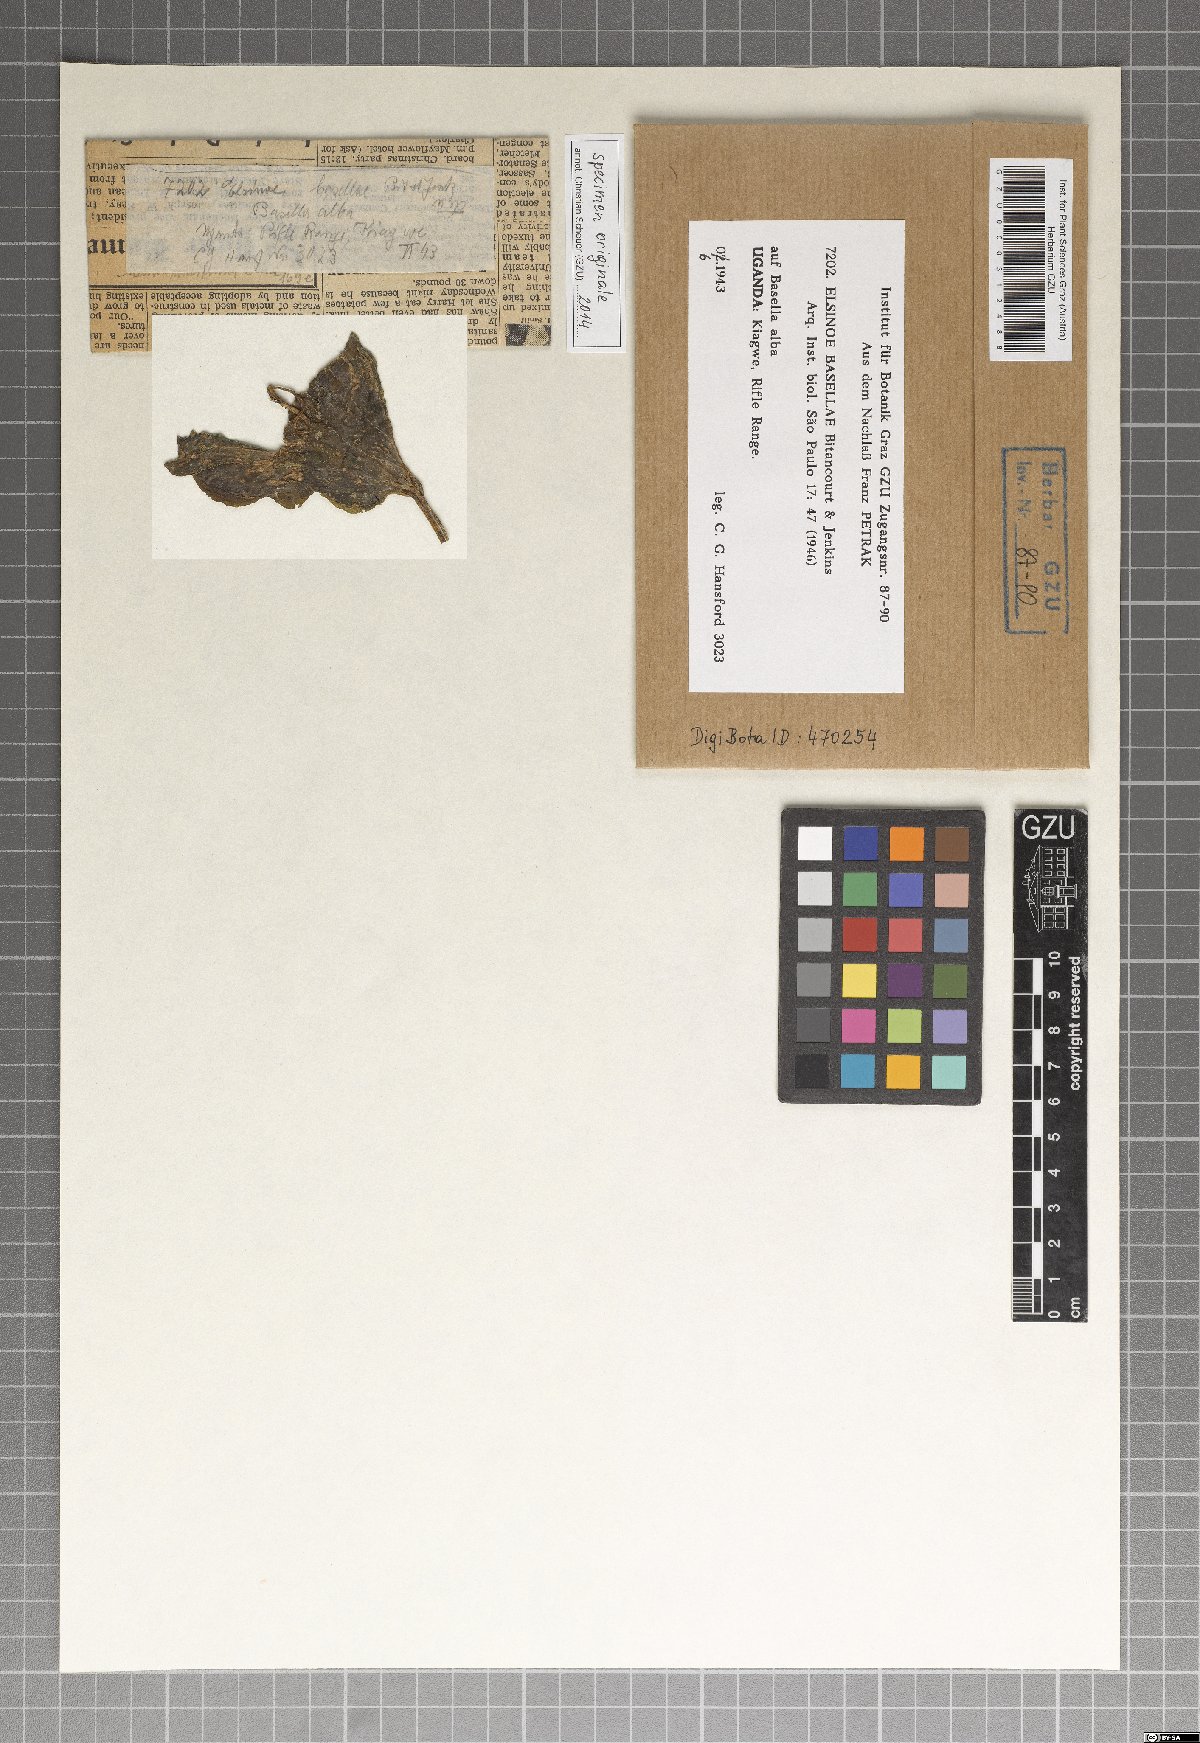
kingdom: Fungi
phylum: Ascomycota
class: Dothideomycetes
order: Myriangiales
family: Elsinoaceae
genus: Elsinoe
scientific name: Elsinoe basellae
